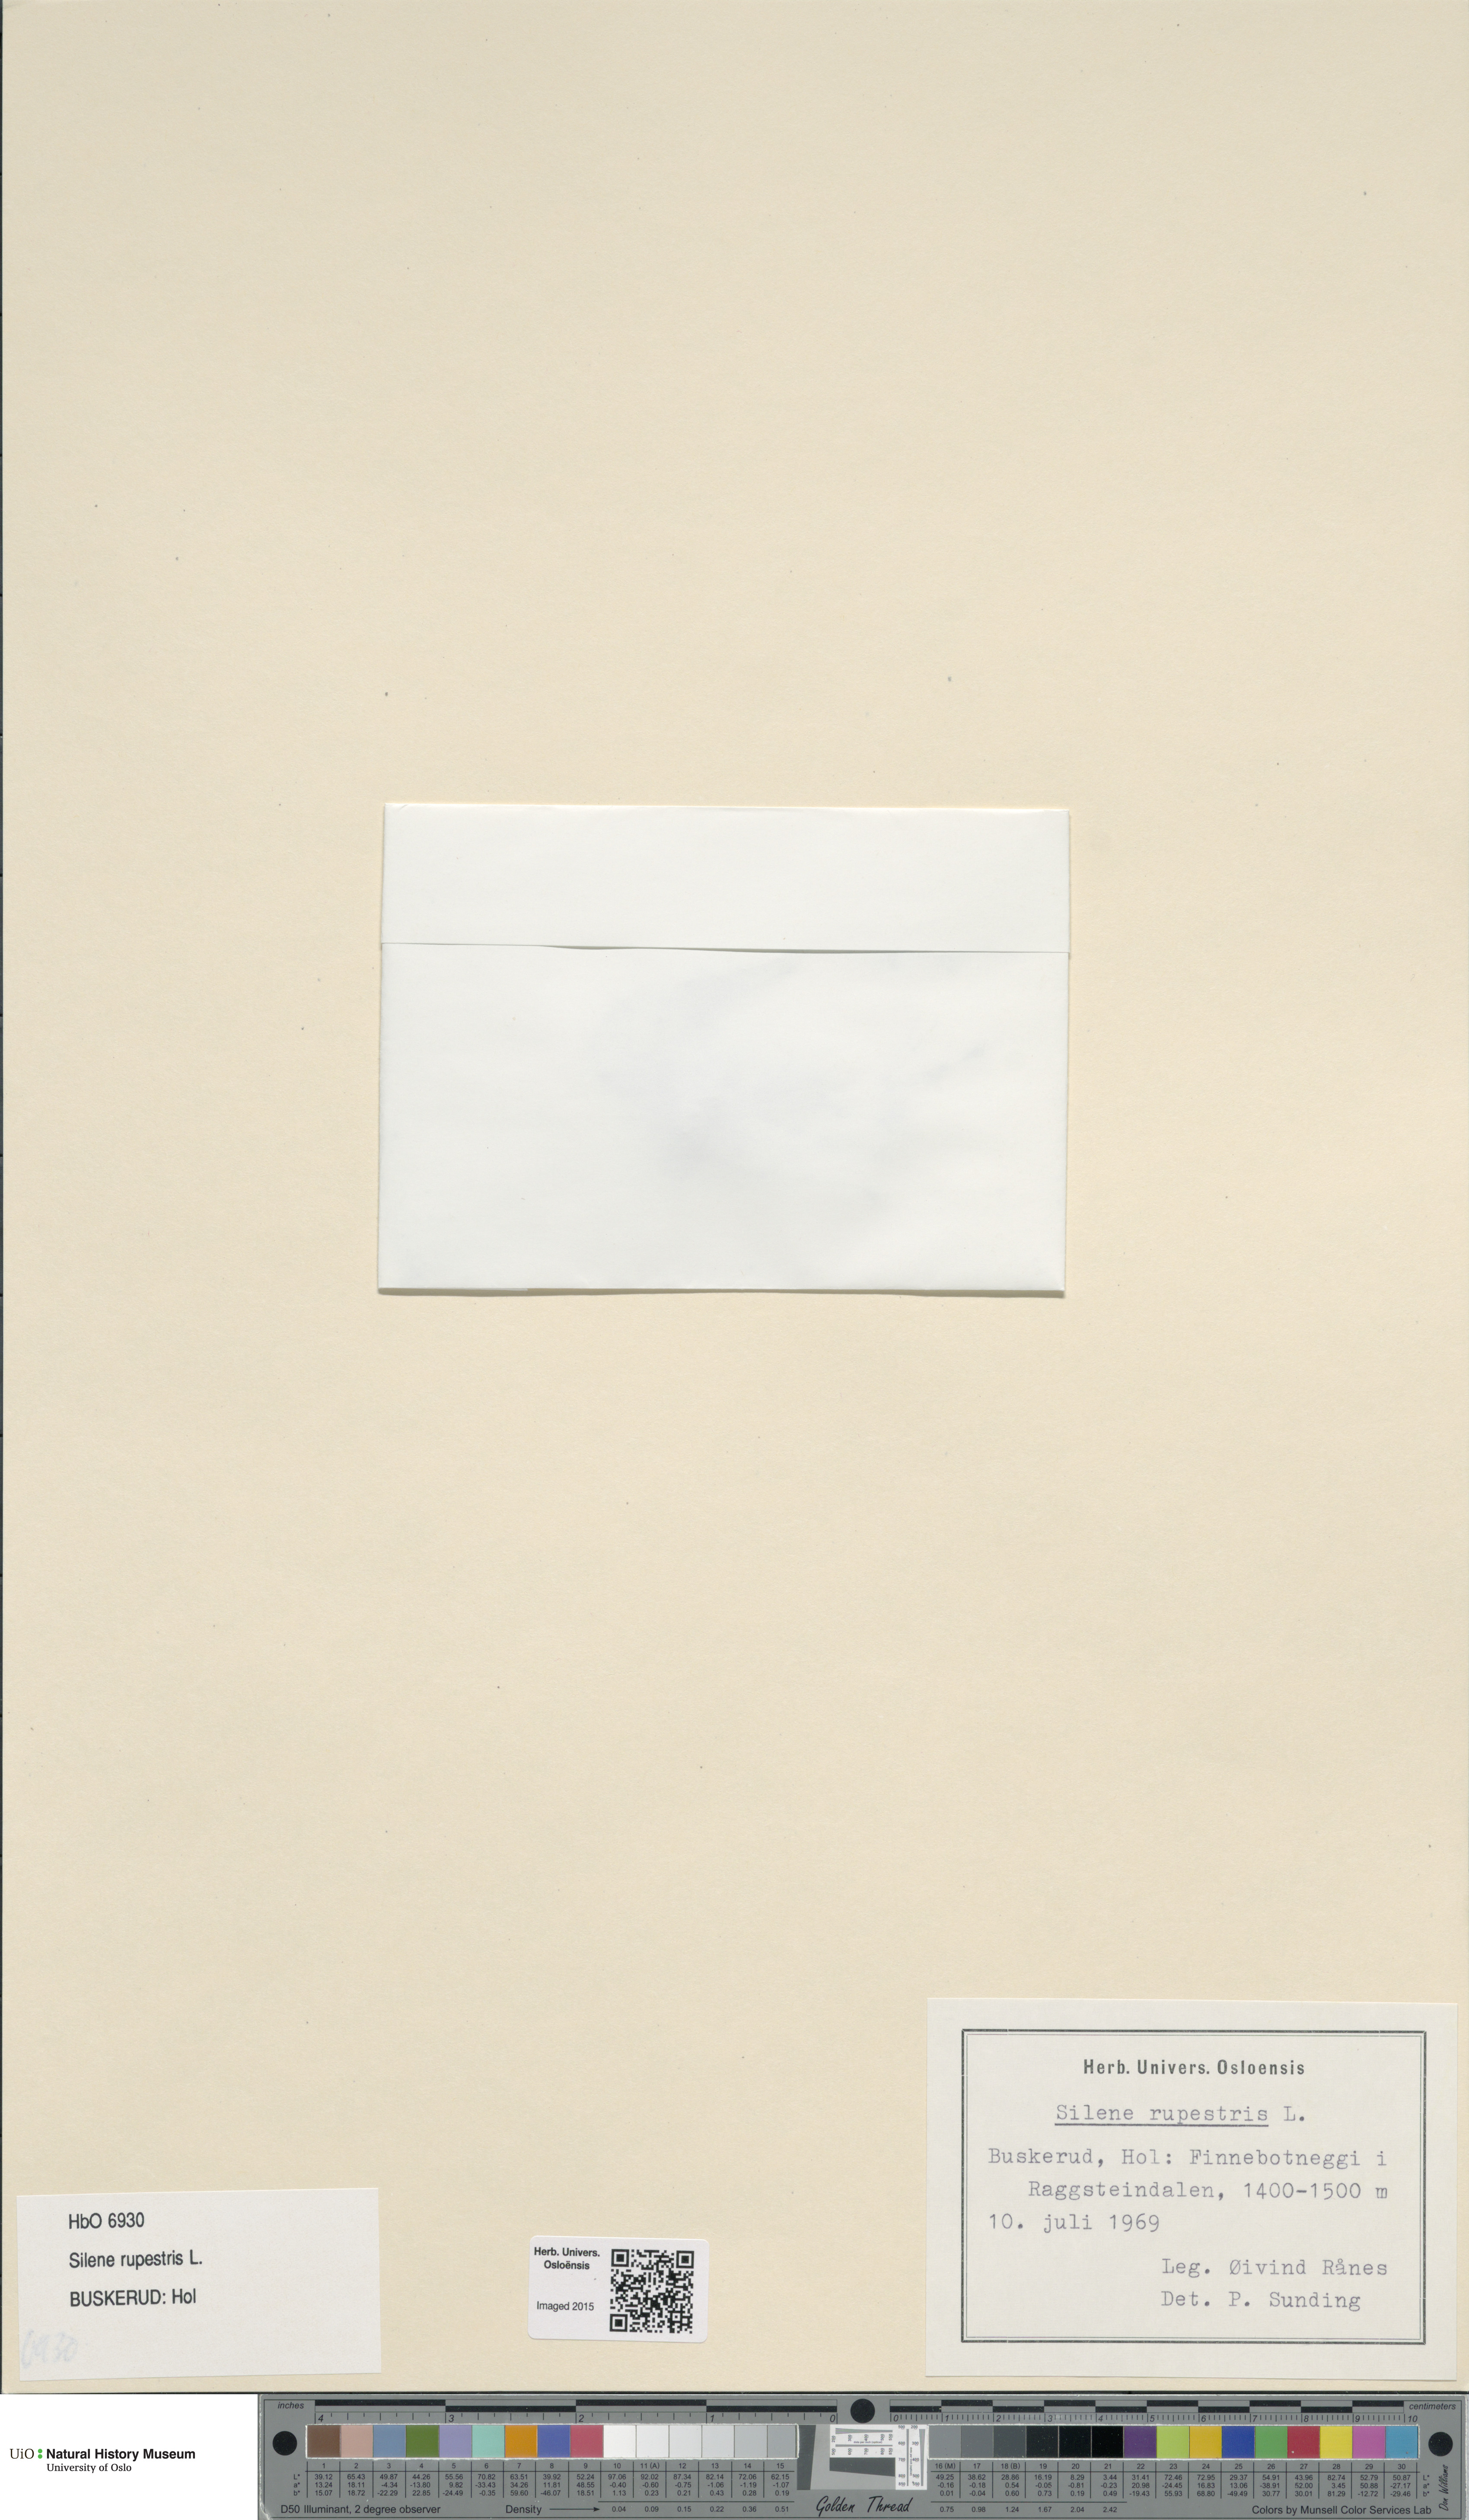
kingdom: Plantae
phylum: Tracheophyta
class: Magnoliopsida
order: Caryophyllales
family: Caryophyllaceae
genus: Atocion
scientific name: Atocion rupestre
